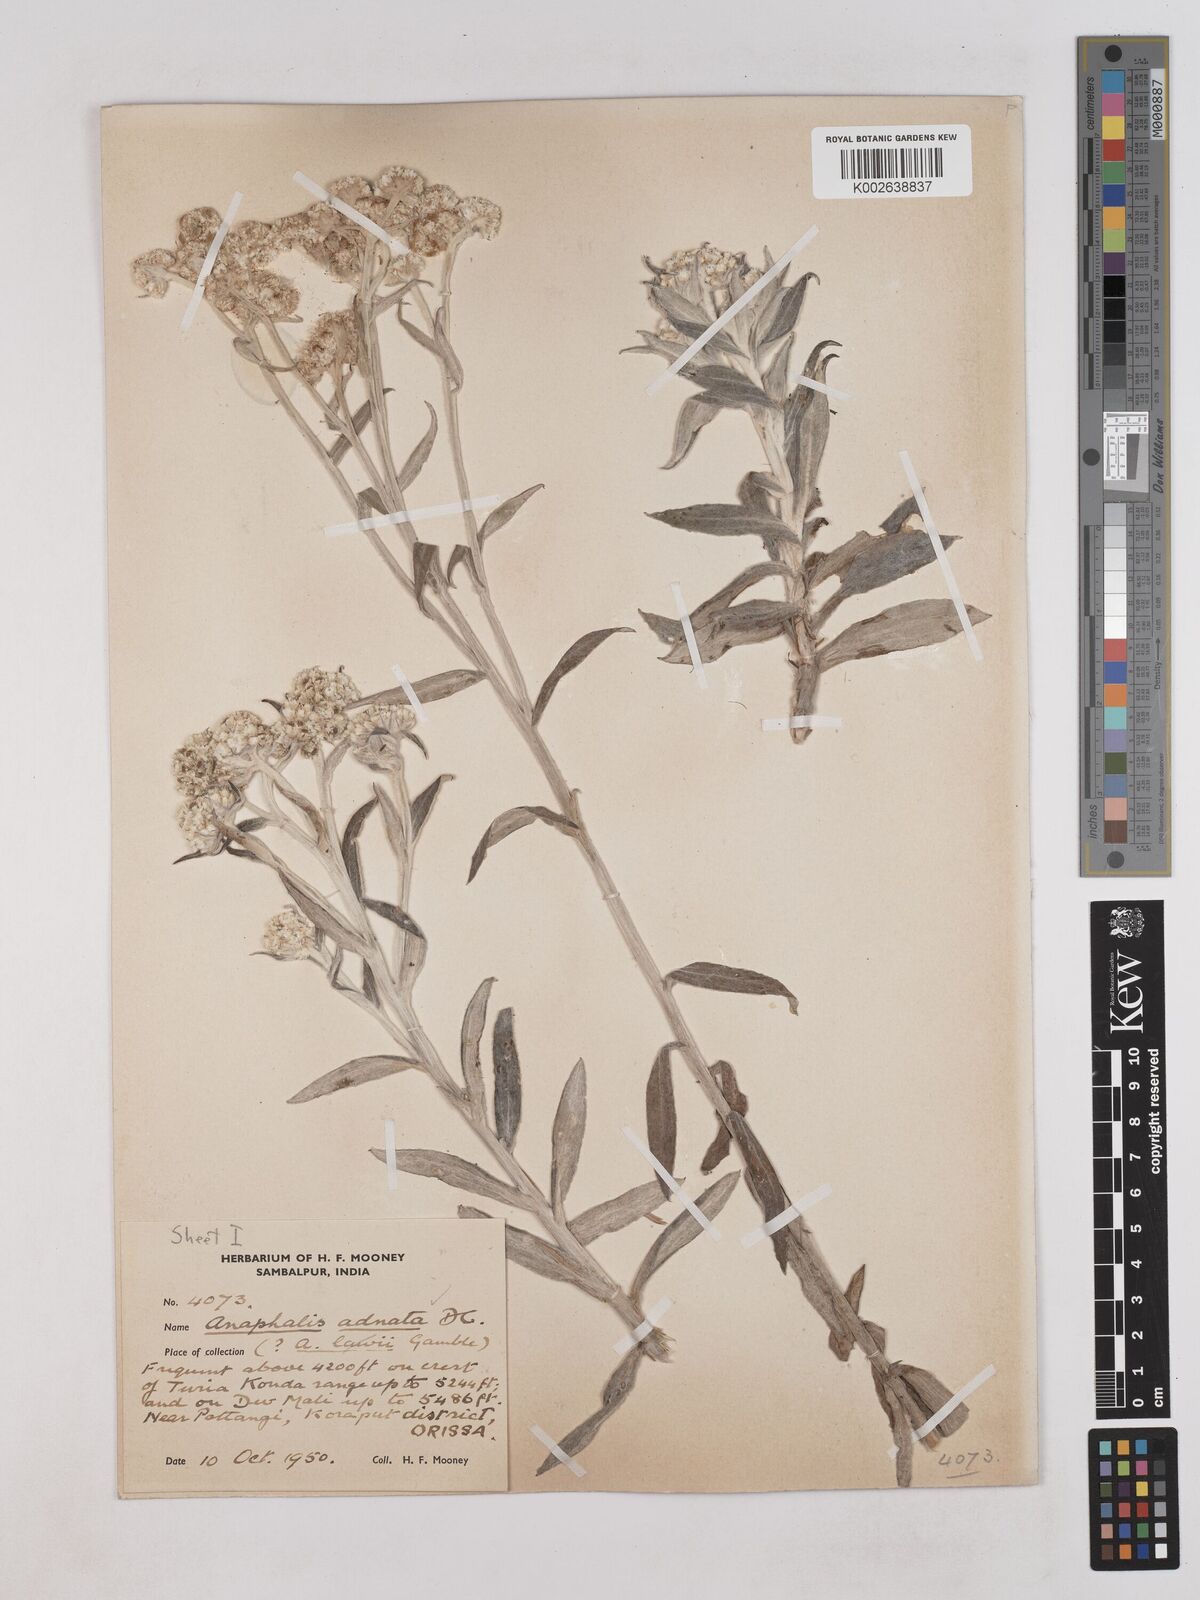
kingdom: Plantae
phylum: Tracheophyta
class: Magnoliopsida
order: Asterales
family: Asteraceae
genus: Pseudognaphalium
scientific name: Pseudognaphalium adnatum
